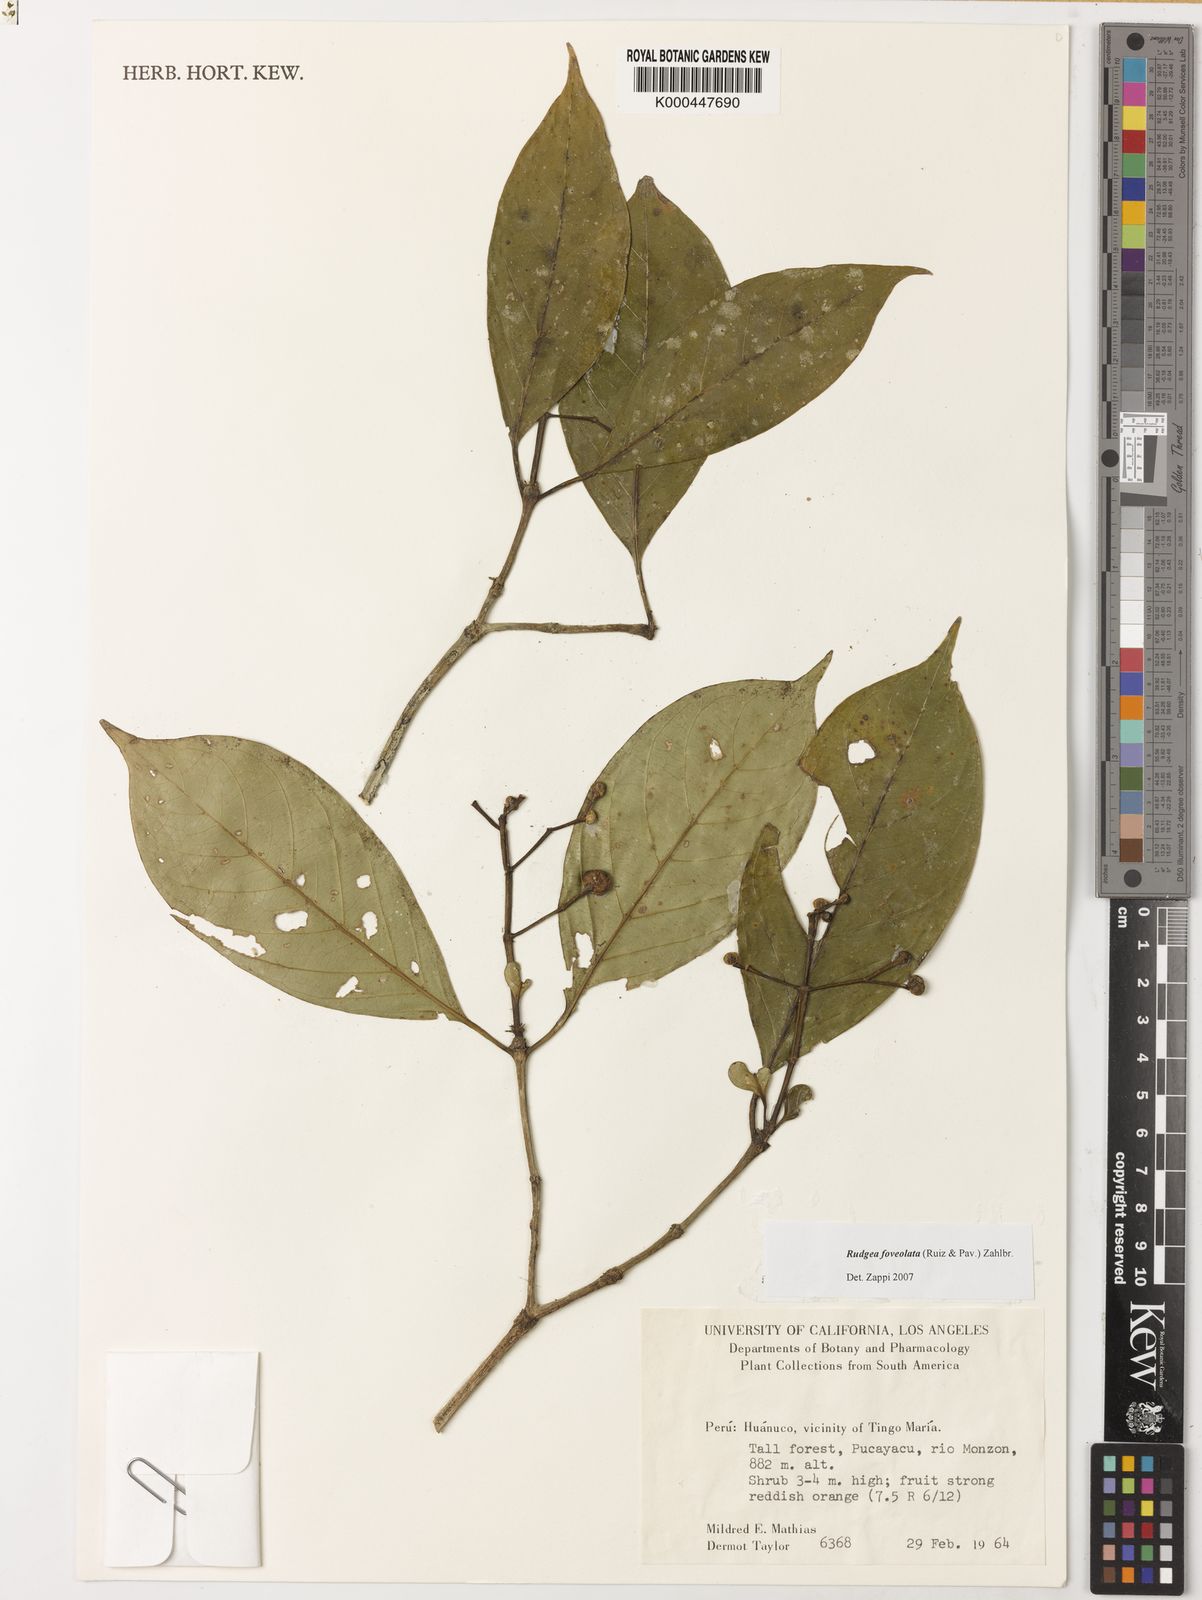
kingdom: Plantae
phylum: Tracheophyta
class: Magnoliopsida
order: Gentianales
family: Rubiaceae
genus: Rudgea
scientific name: Rudgea foveolata
